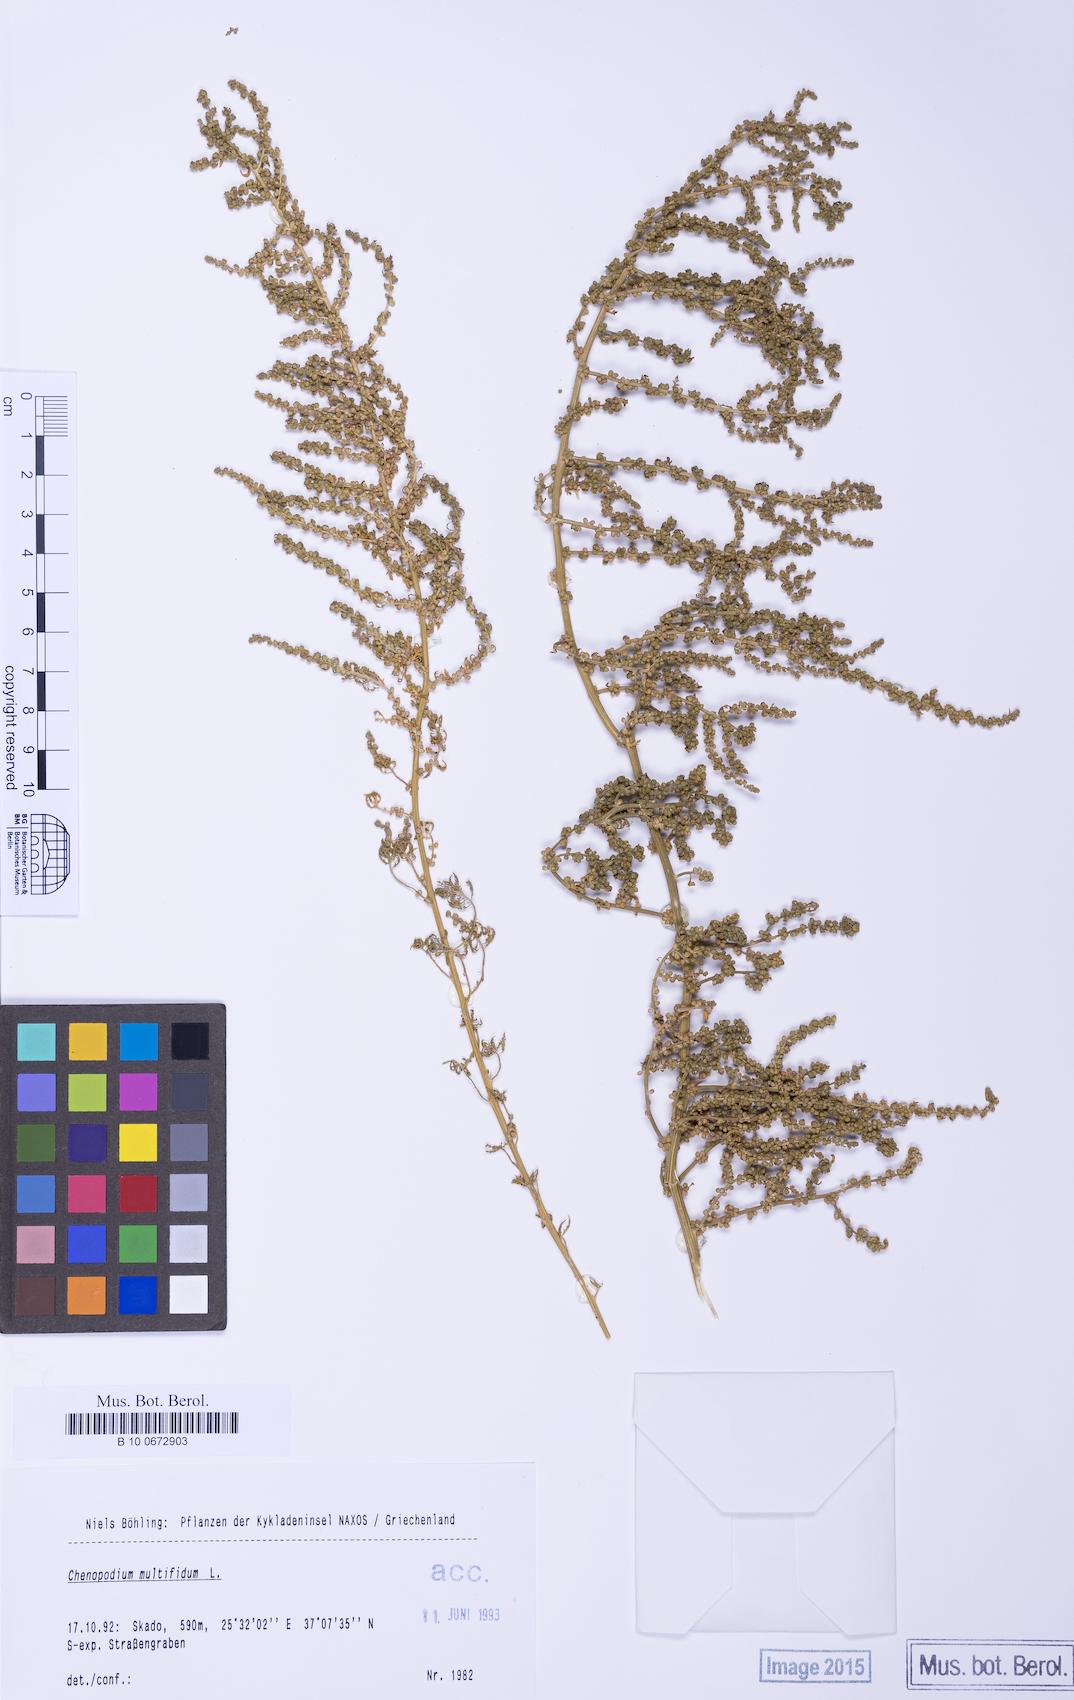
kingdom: Plantae
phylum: Tracheophyta
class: Magnoliopsida
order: Caryophyllales
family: Amaranthaceae
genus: Dysphania
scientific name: Dysphania multifida
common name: Cutleaf goosefoot
